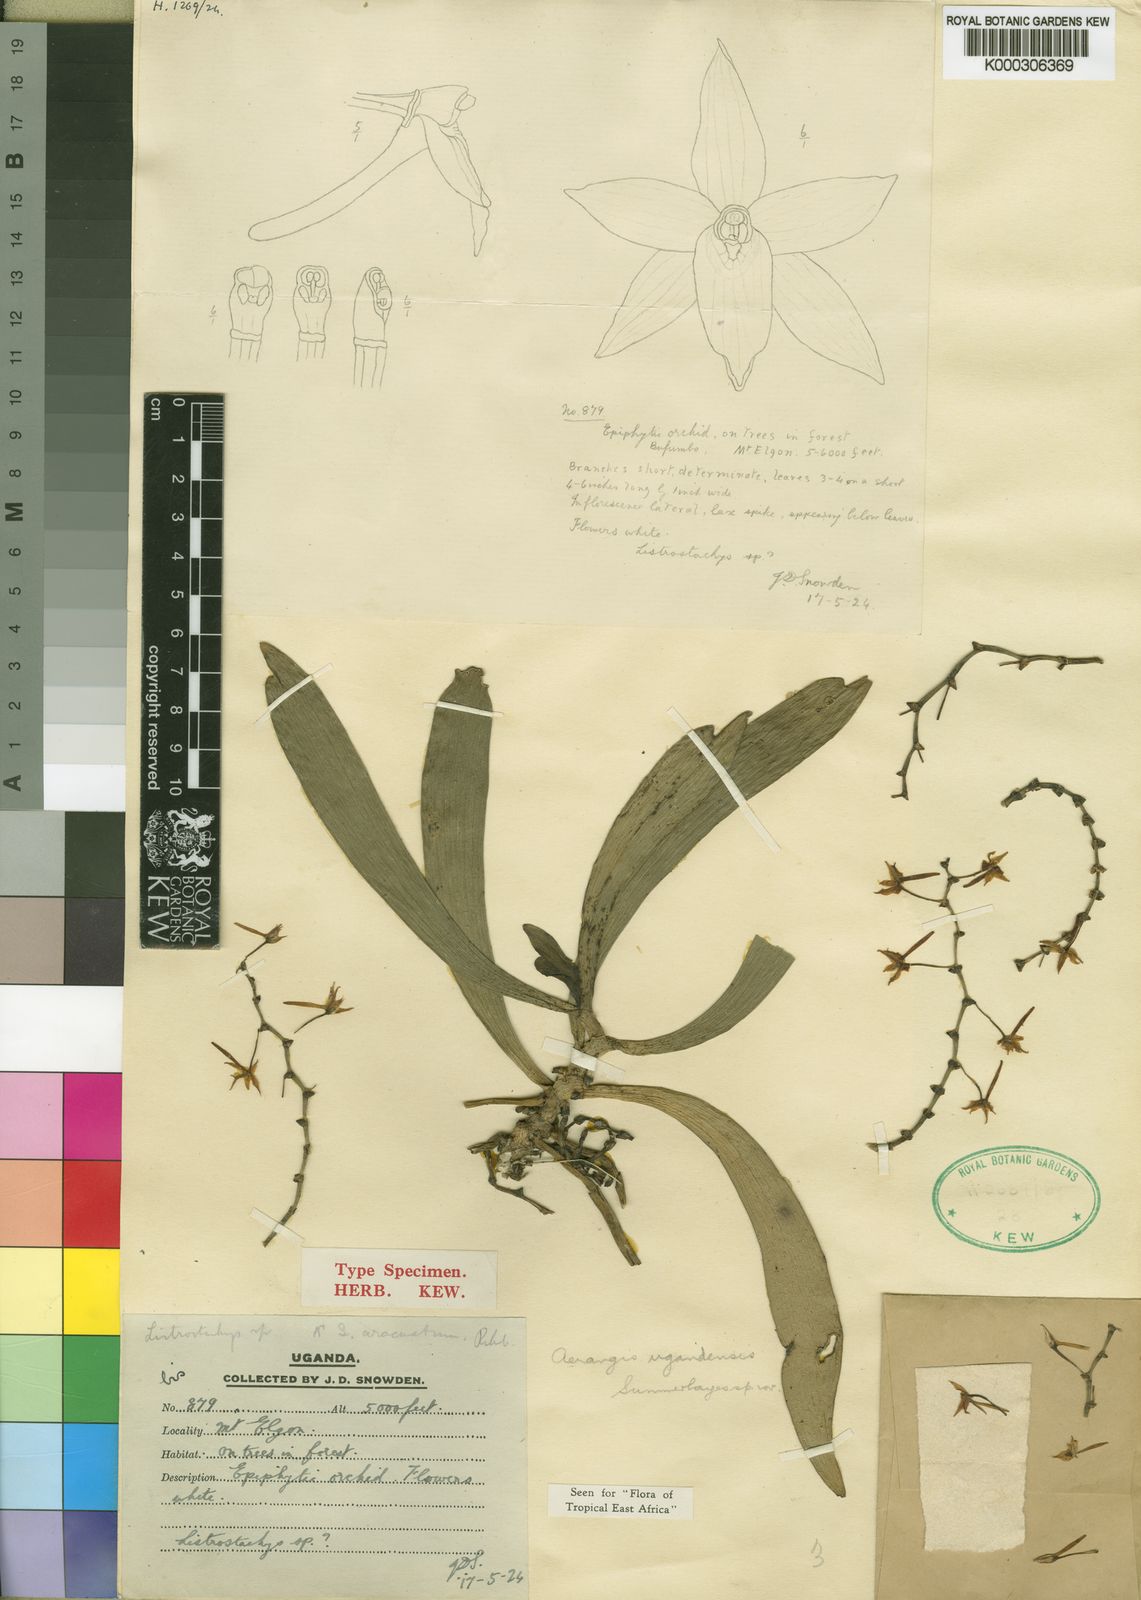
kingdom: Plantae
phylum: Tracheophyta
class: Liliopsida
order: Asparagales
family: Orchidaceae
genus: Aerangis
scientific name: Aerangis ugandensis
